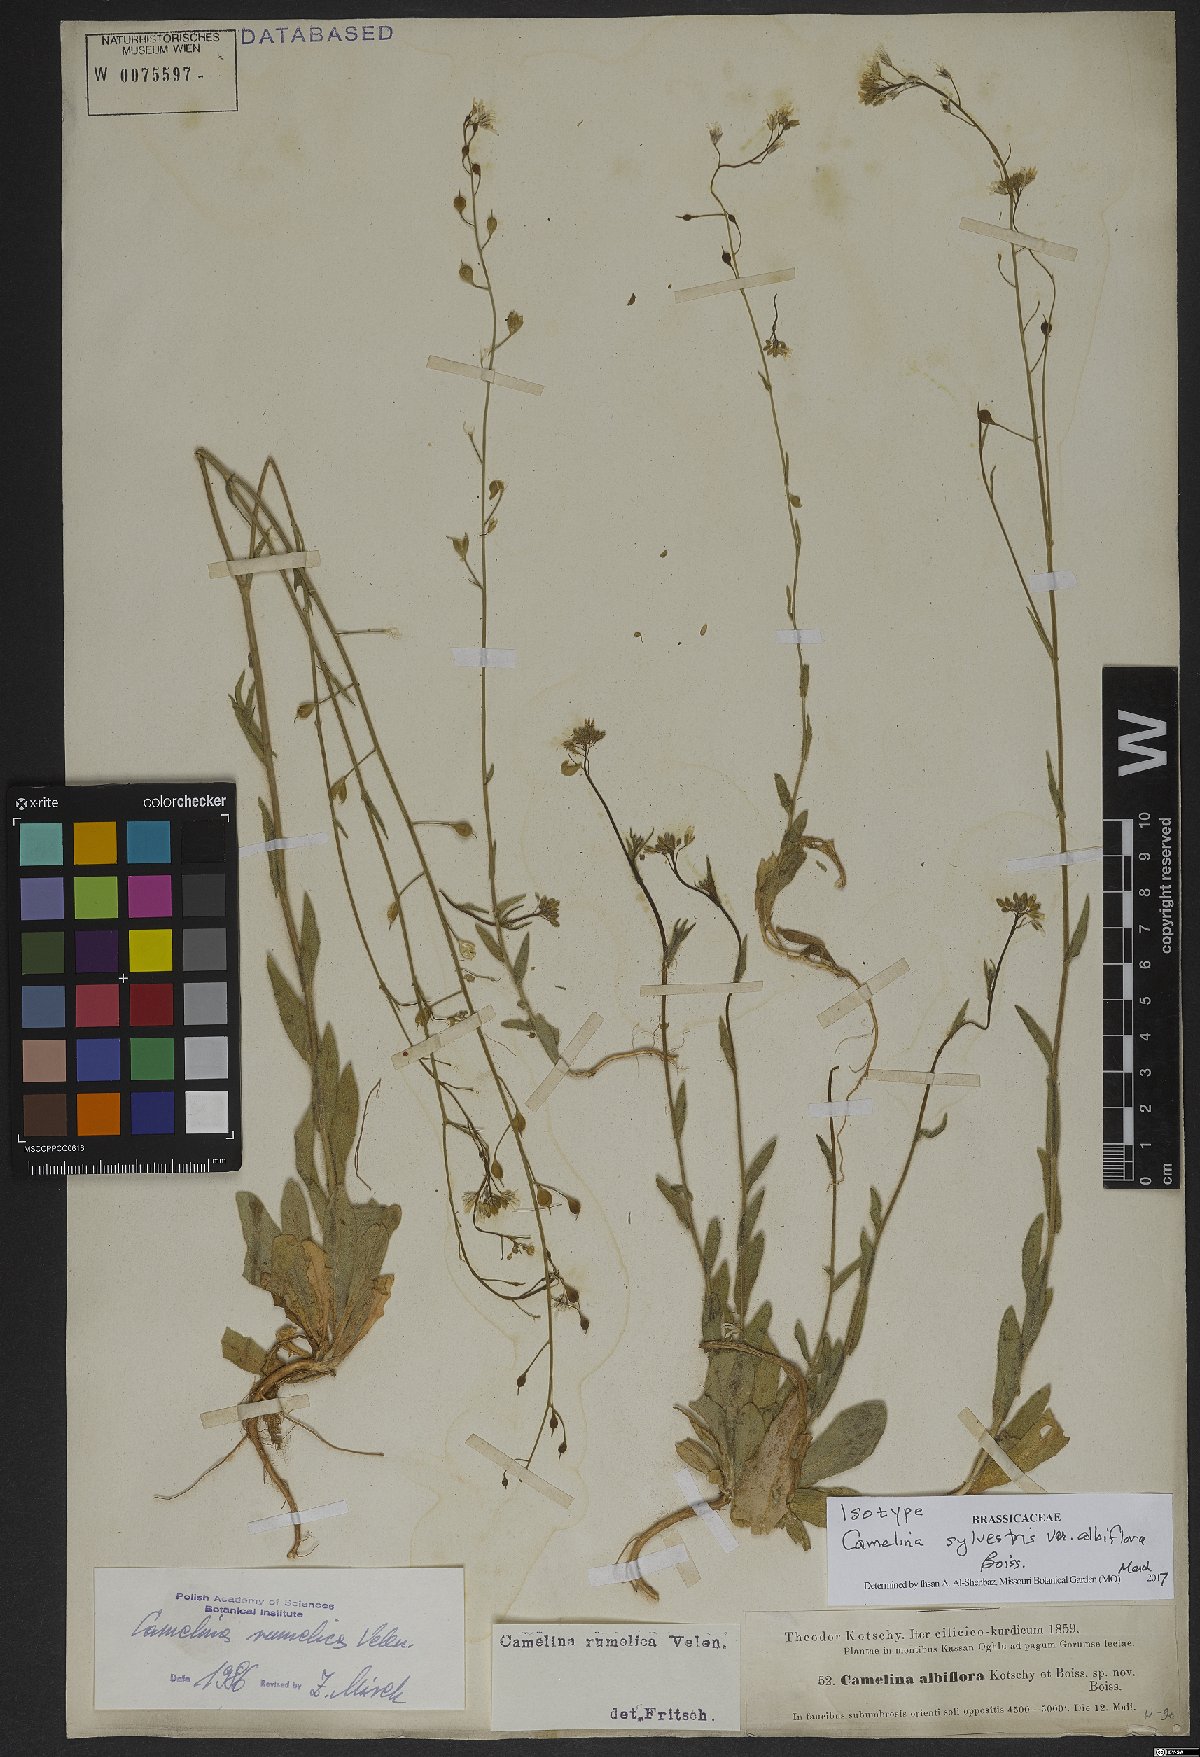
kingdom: Plantae
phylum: Tracheophyta
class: Magnoliopsida
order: Brassicales
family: Brassicaceae
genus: Camelina
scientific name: Camelina rumelica
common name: Graceful false flax
